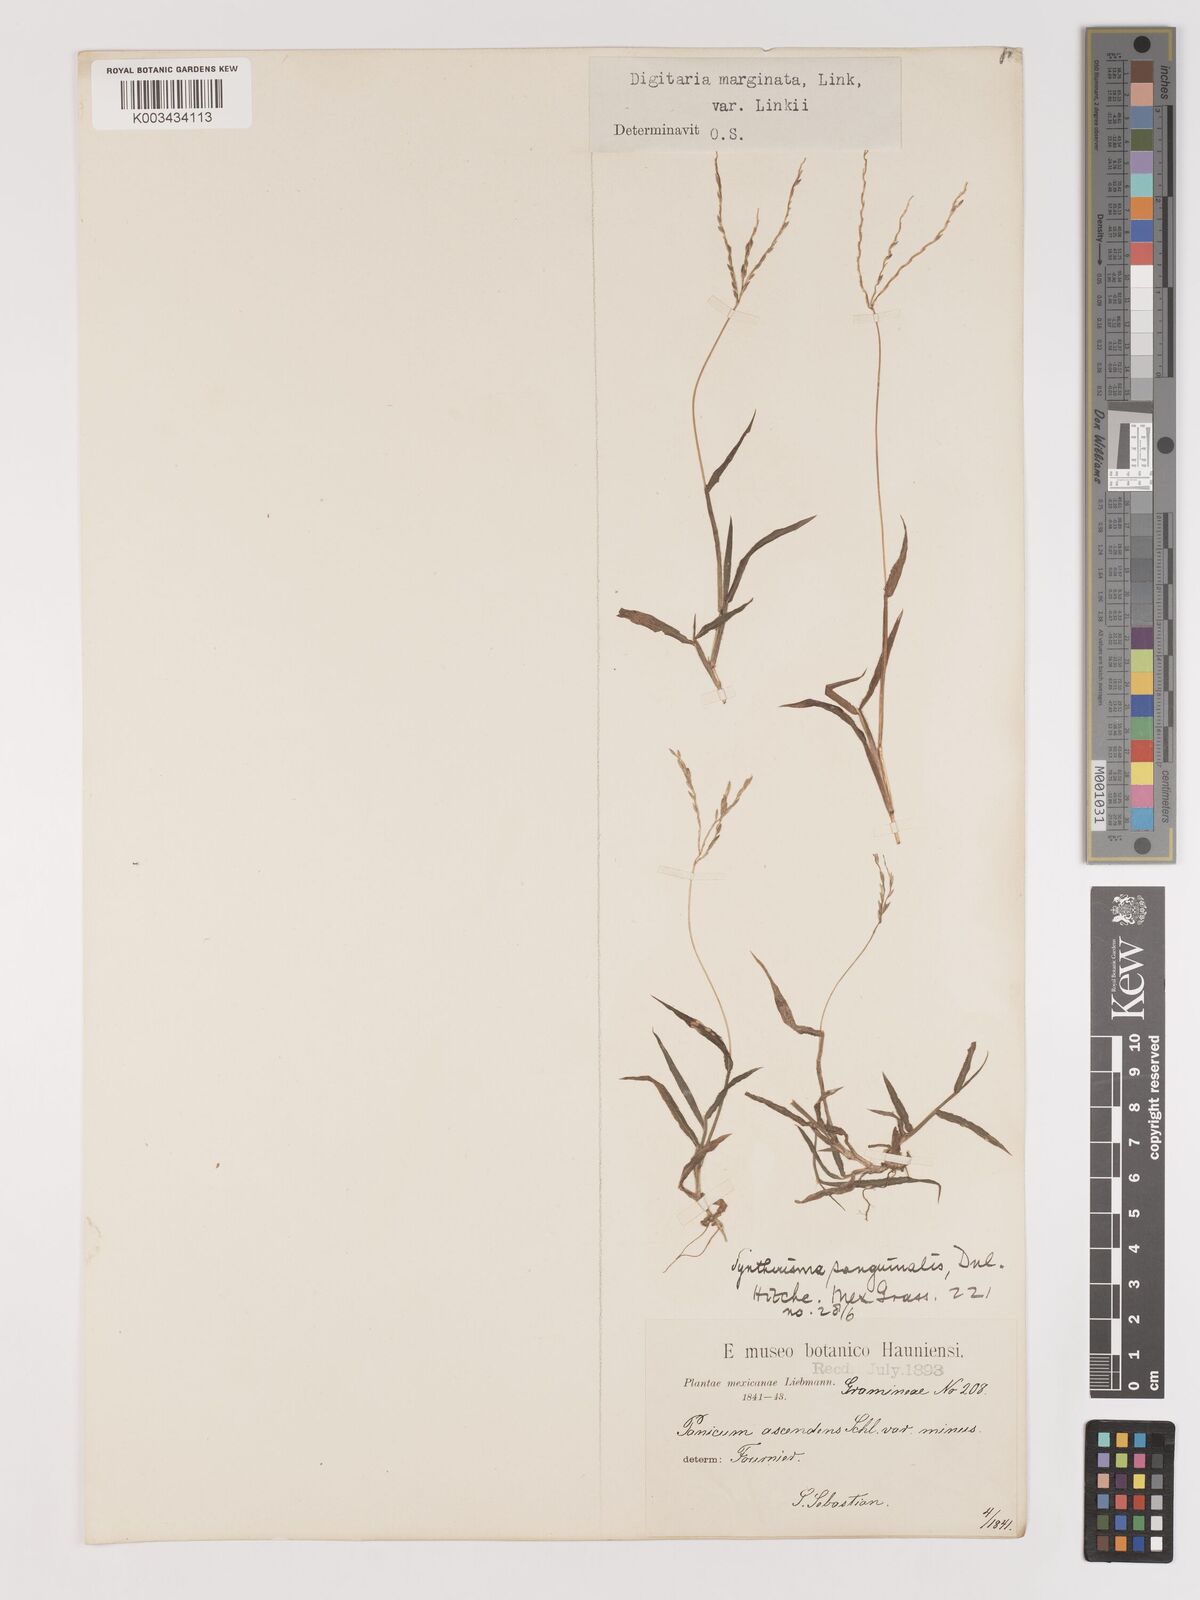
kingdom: Plantae
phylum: Tracheophyta
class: Liliopsida
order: Poales
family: Poaceae
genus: Digitaria
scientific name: Digitaria ciliaris
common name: Tropical finger-grass
